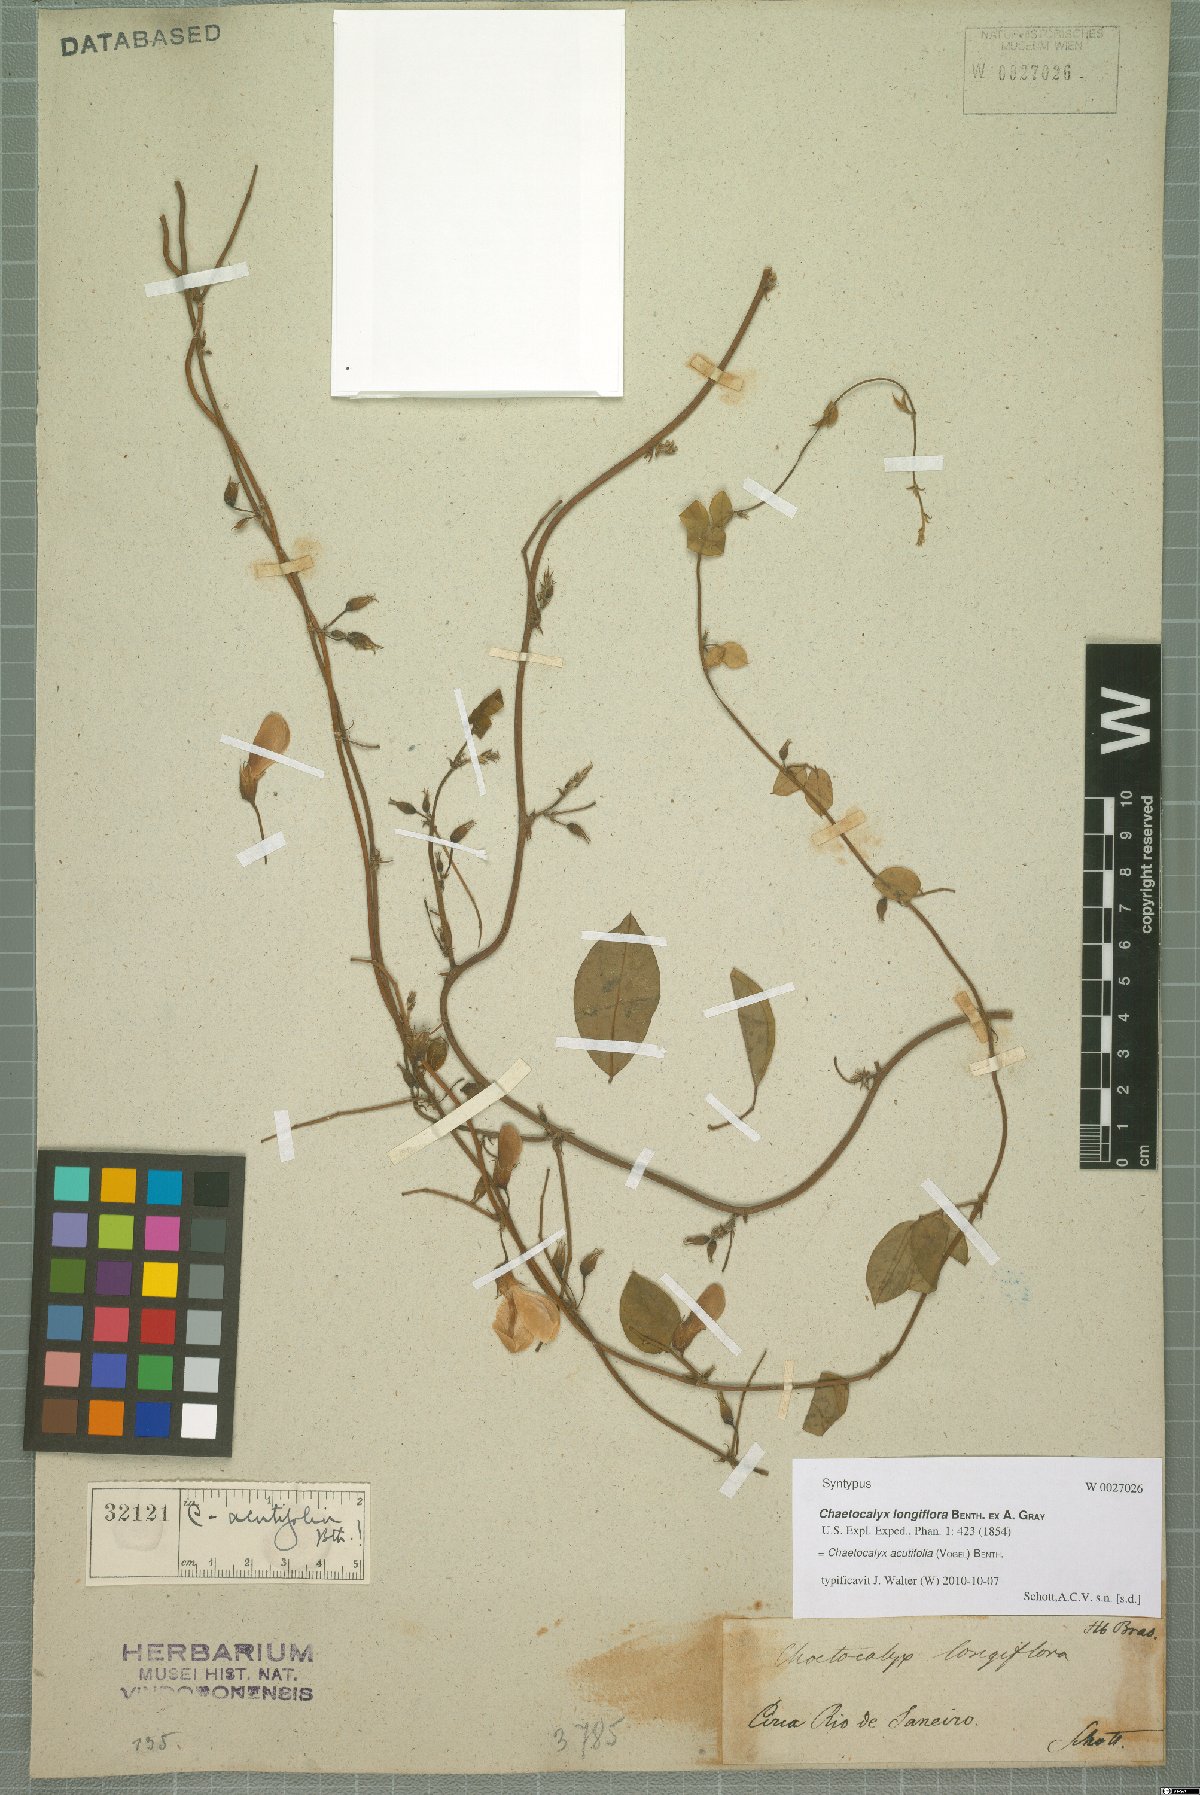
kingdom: Plantae
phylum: Tracheophyta
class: Magnoliopsida
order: Fabales
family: Fabaceae
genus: Nissolia
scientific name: Nissolia acutifolia
